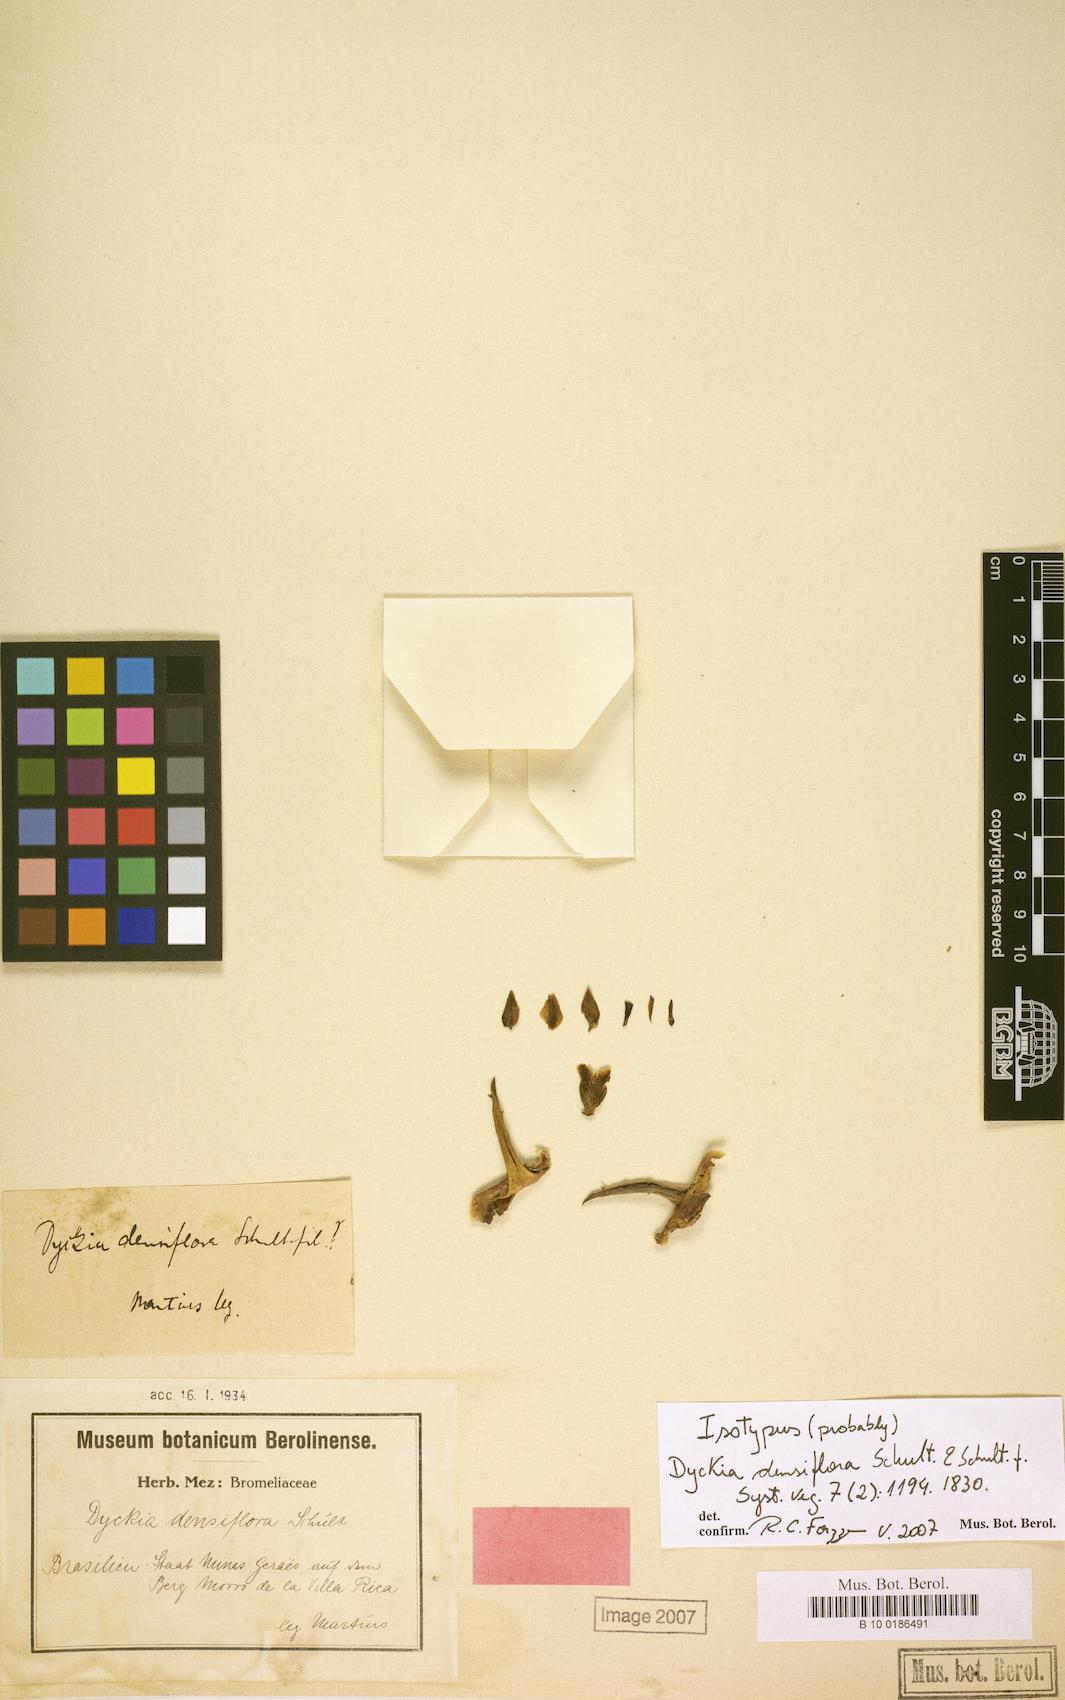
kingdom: Plantae
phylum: Tracheophyta
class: Liliopsida
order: Poales
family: Bromeliaceae
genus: Dyckia
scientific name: Dyckia densiflora
